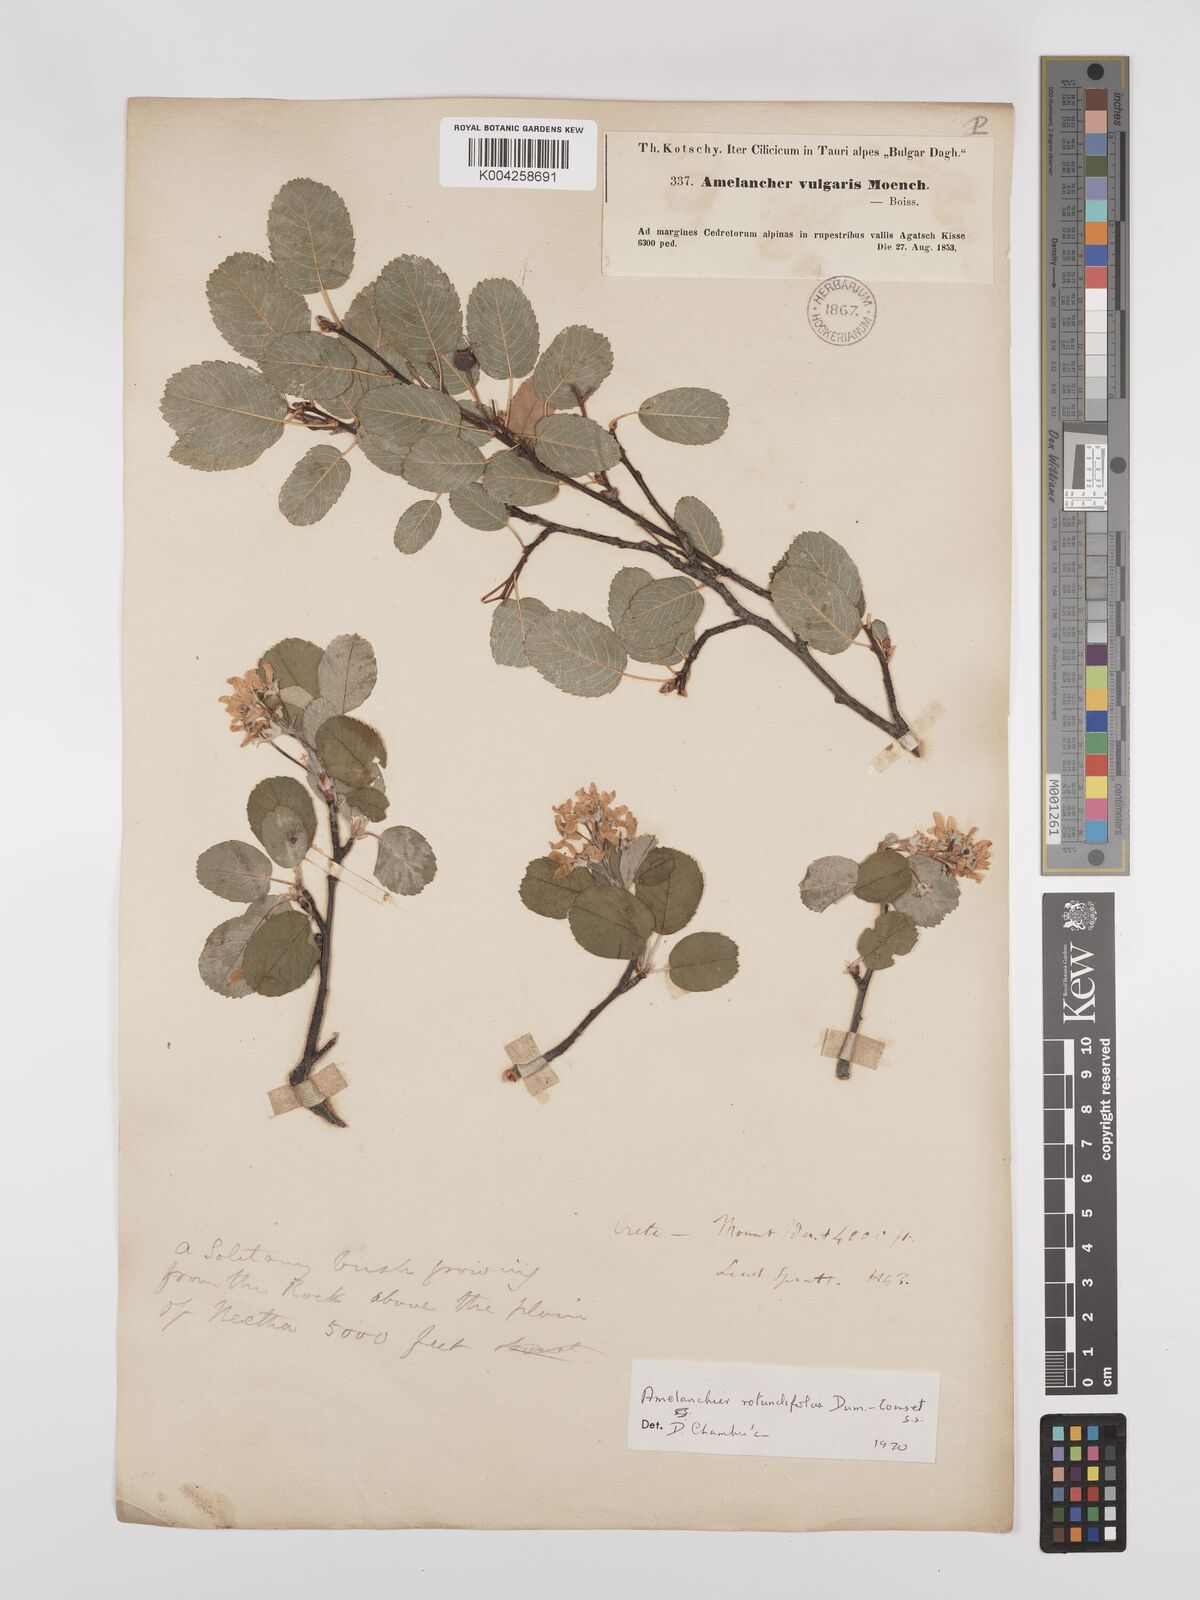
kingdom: Plantae
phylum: Tracheophyta
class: Magnoliopsida
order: Rosales
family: Rosaceae
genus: Amelanchier
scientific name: Amelanchier ovalis
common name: Serviceberry
